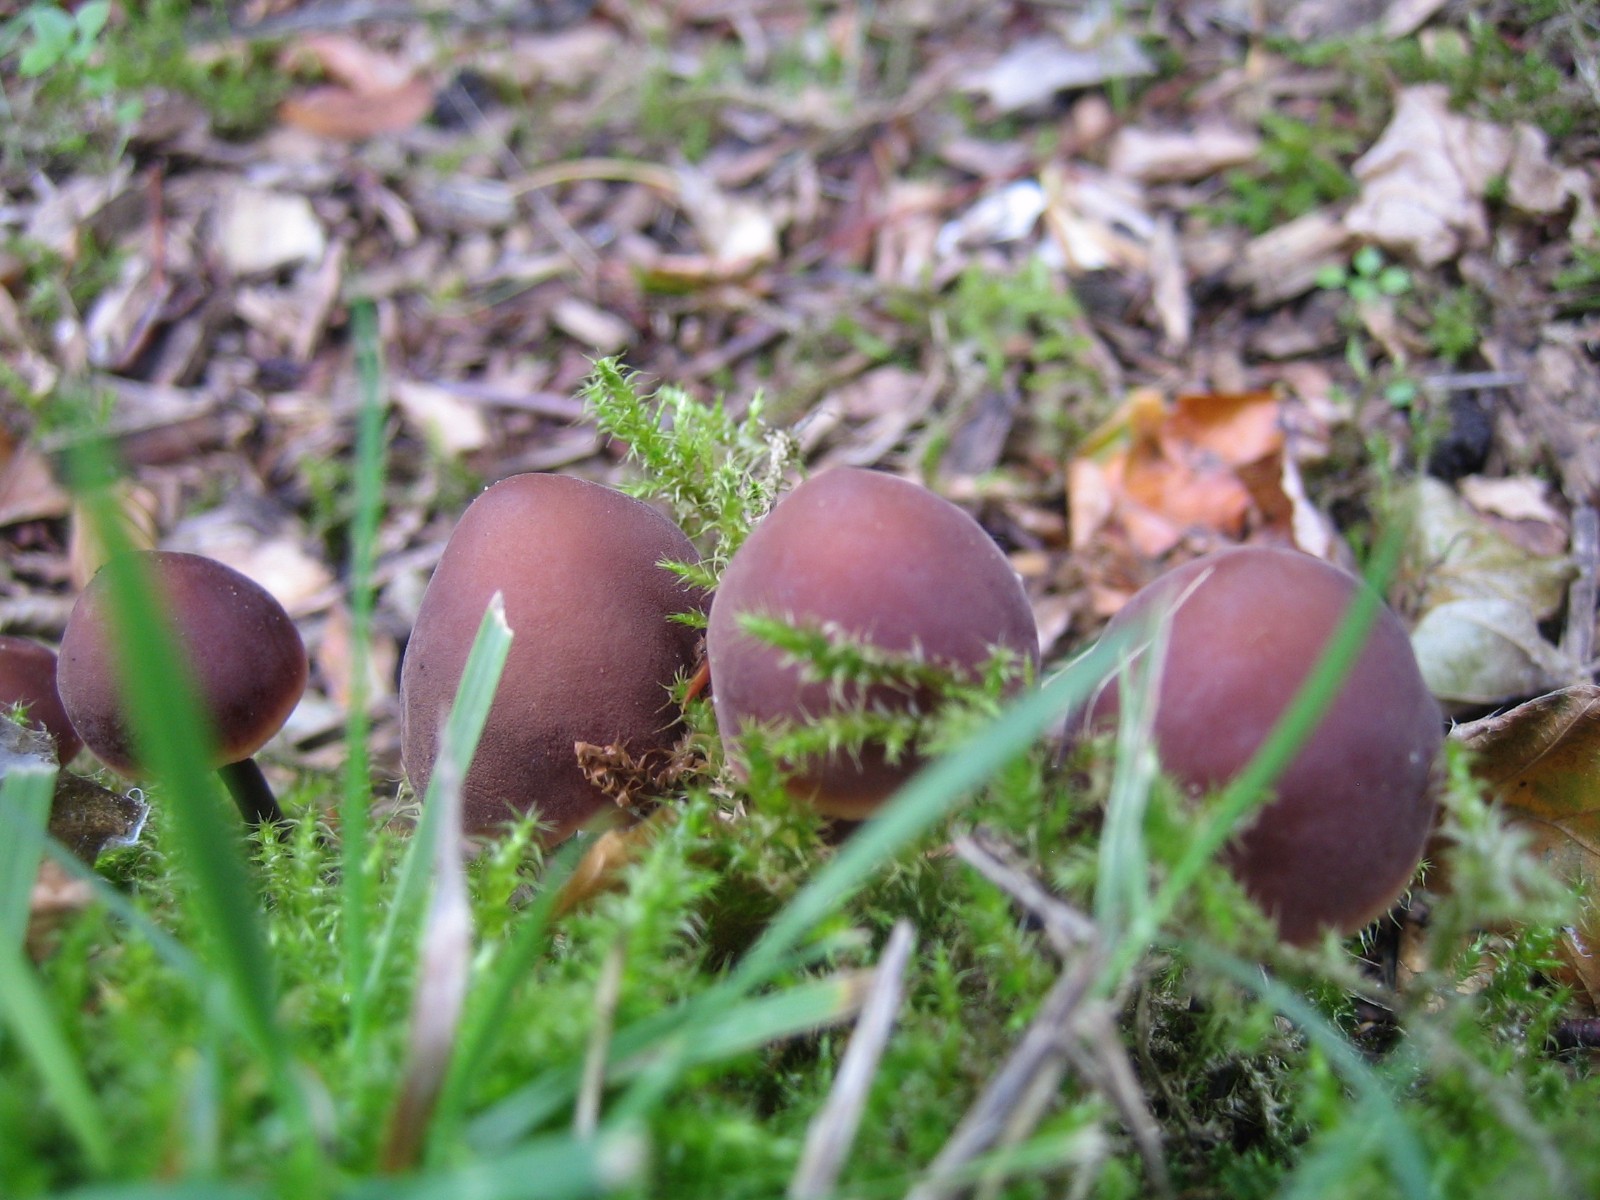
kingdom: Fungi
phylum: Basidiomycota
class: Agaricomycetes
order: Agaricales
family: Macrocystidiaceae
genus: Macrocystidia
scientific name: Macrocystidia cucumis
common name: agurkehat
